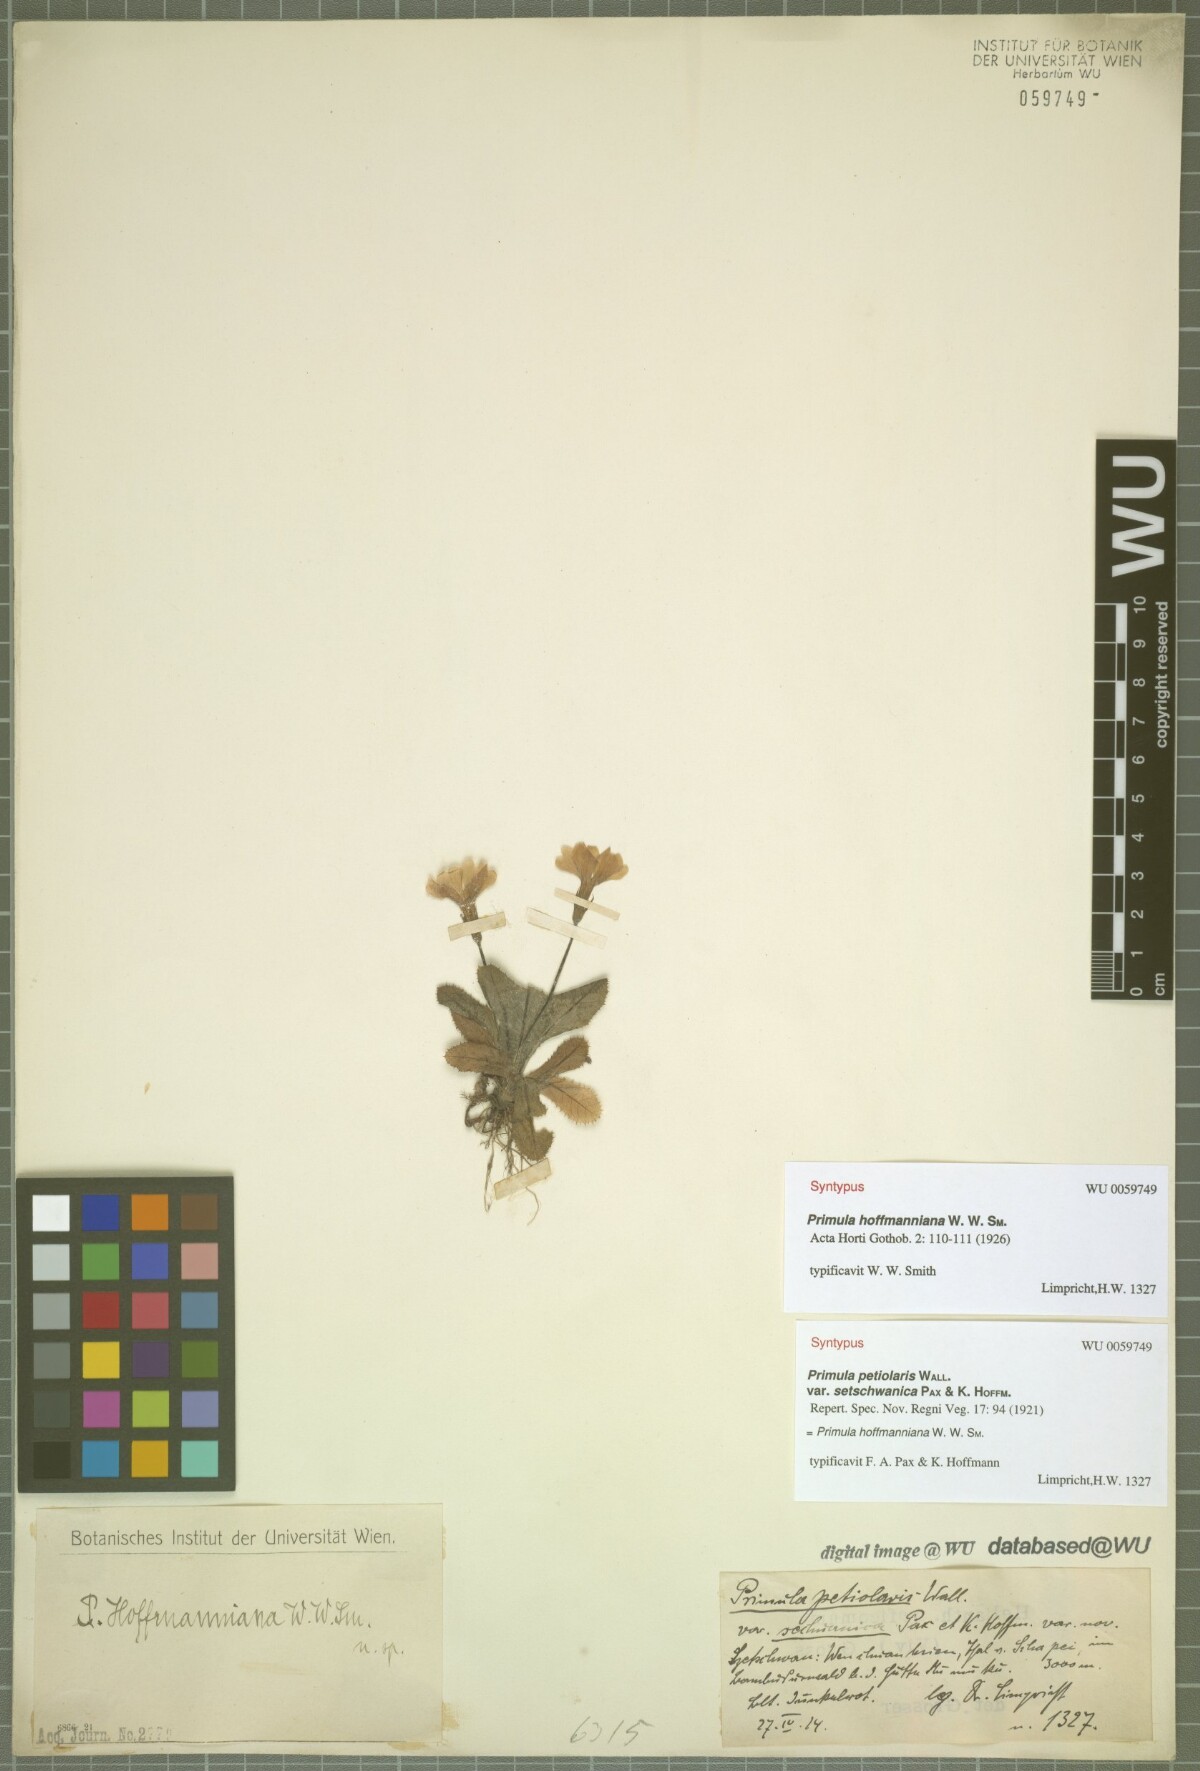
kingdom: Plantae
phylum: Tracheophyta
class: Magnoliopsida
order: Ericales
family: Primulaceae
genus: Primula
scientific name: Primula hoffmanniana
